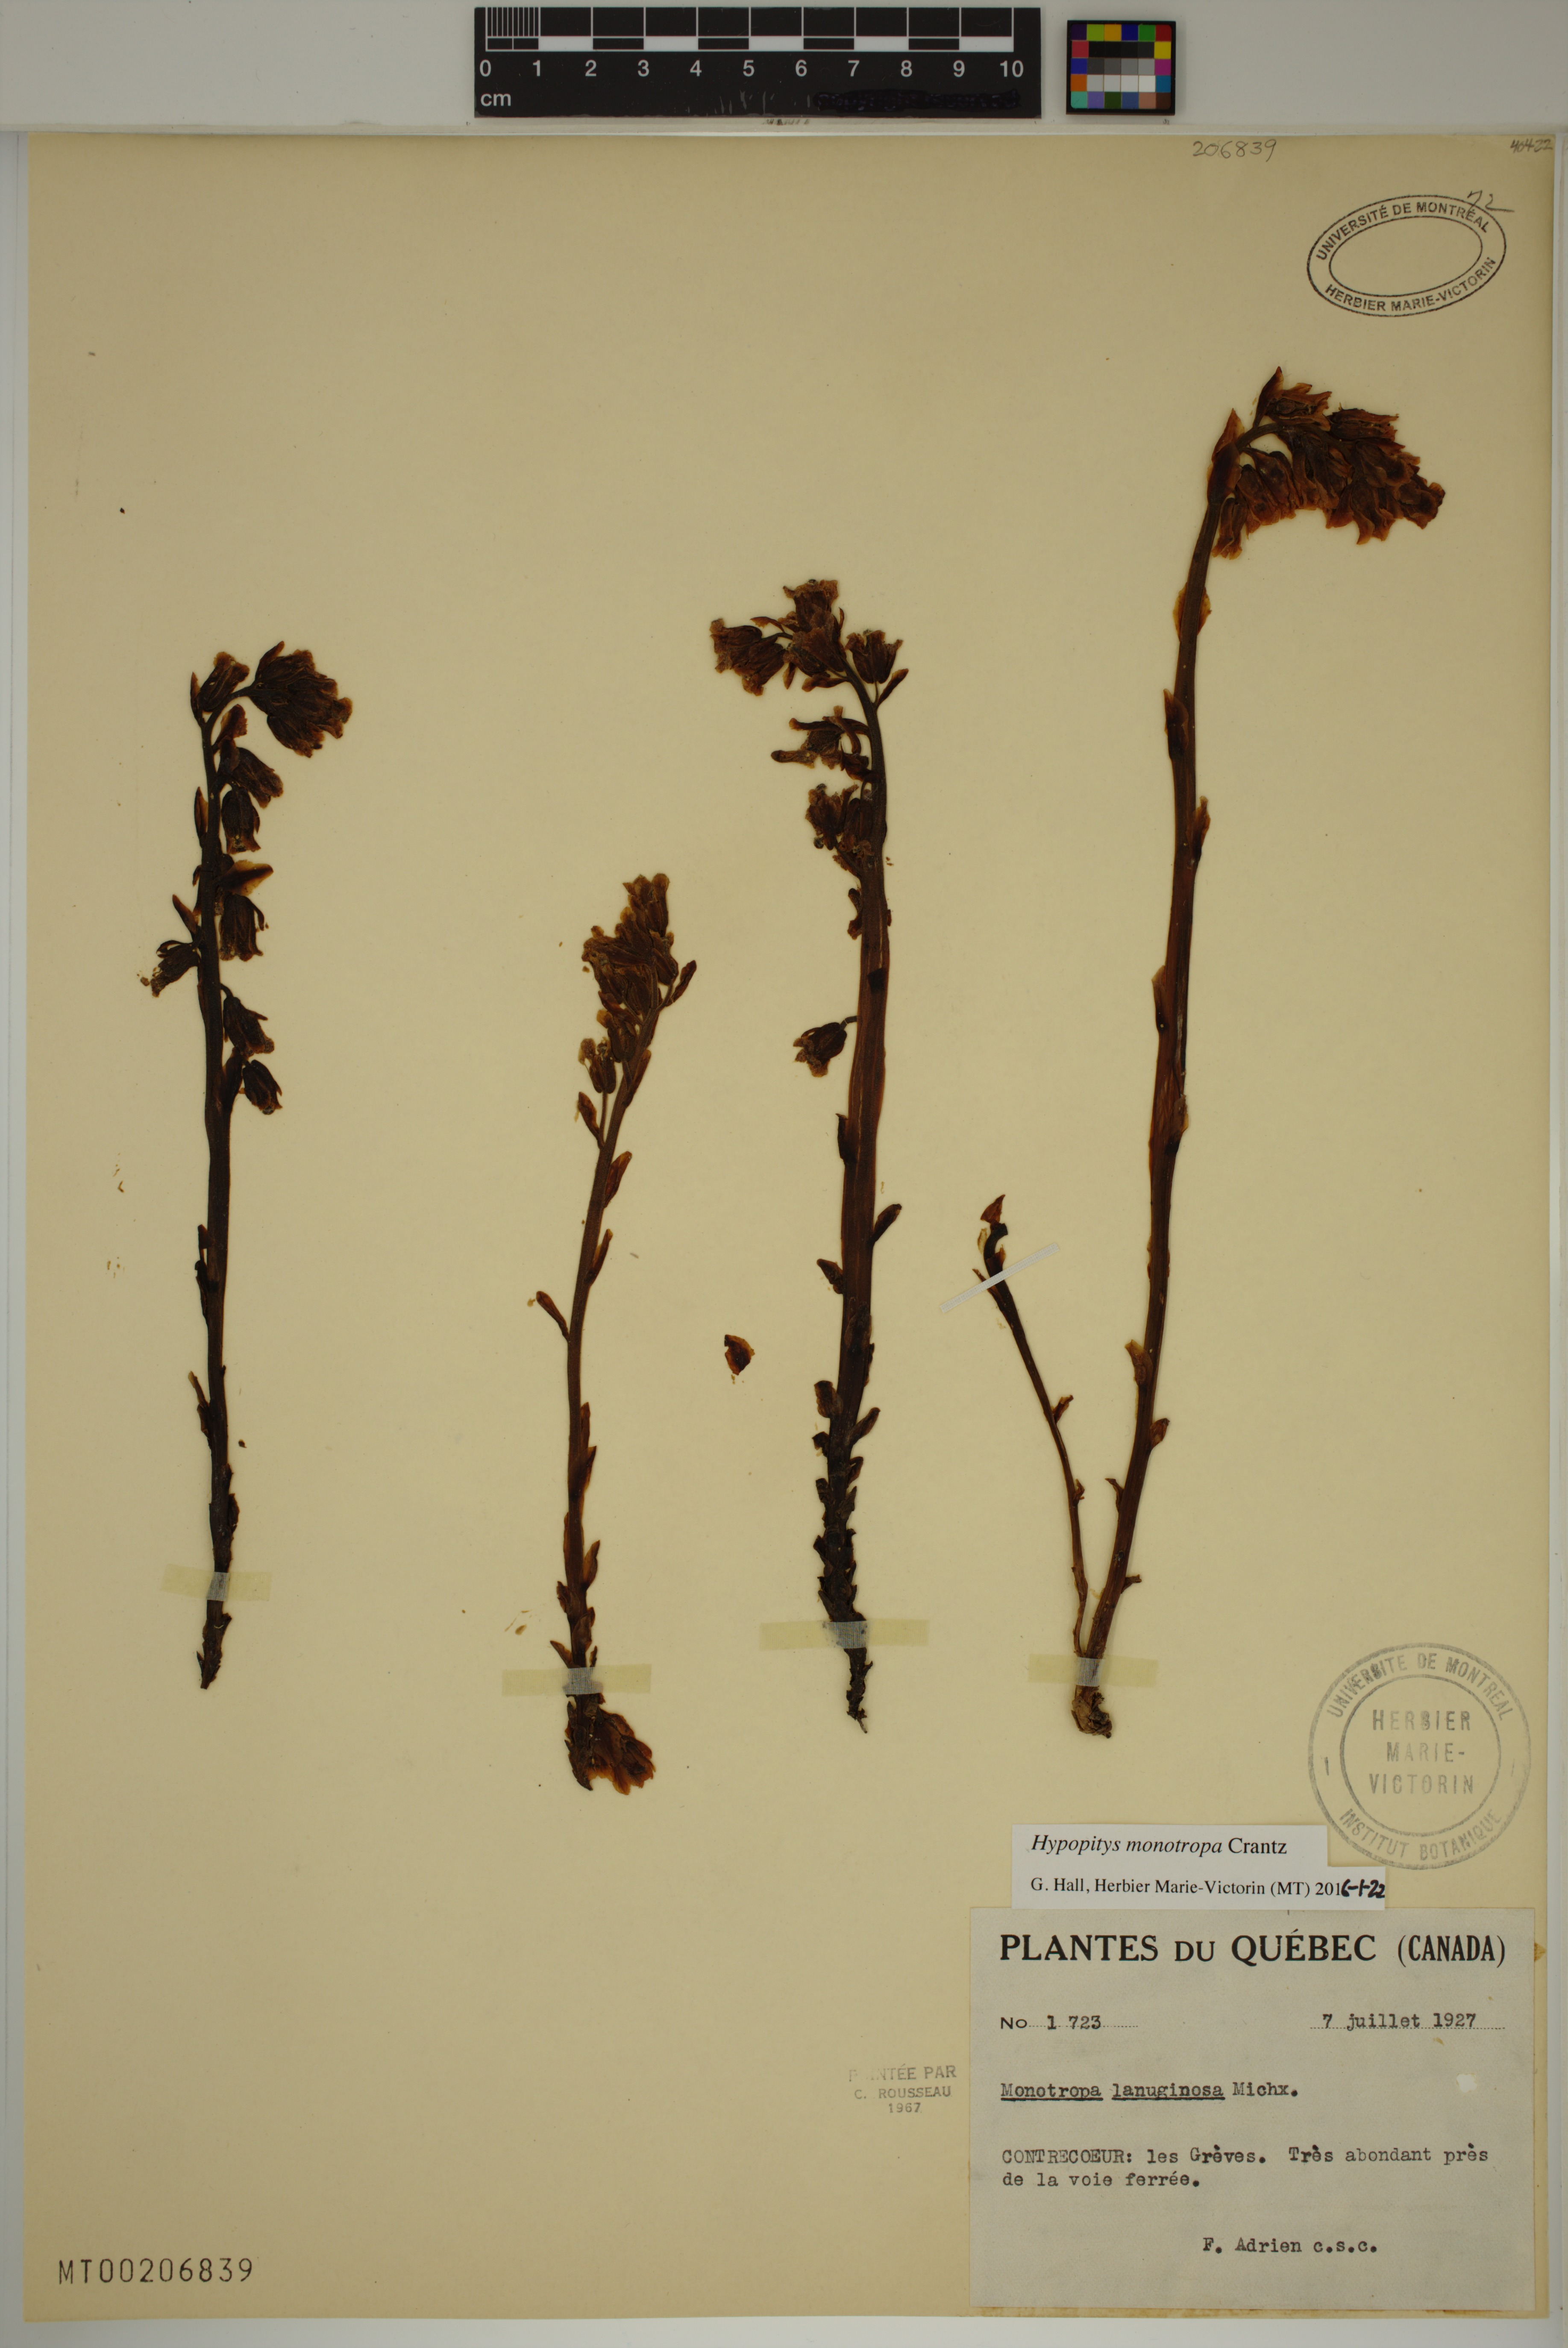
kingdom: Plantae
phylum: Tracheophyta
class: Magnoliopsida
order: Ericales
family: Ericaceae
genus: Hypopitys
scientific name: Hypopitys monotropa
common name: Yellow bird's-nest
